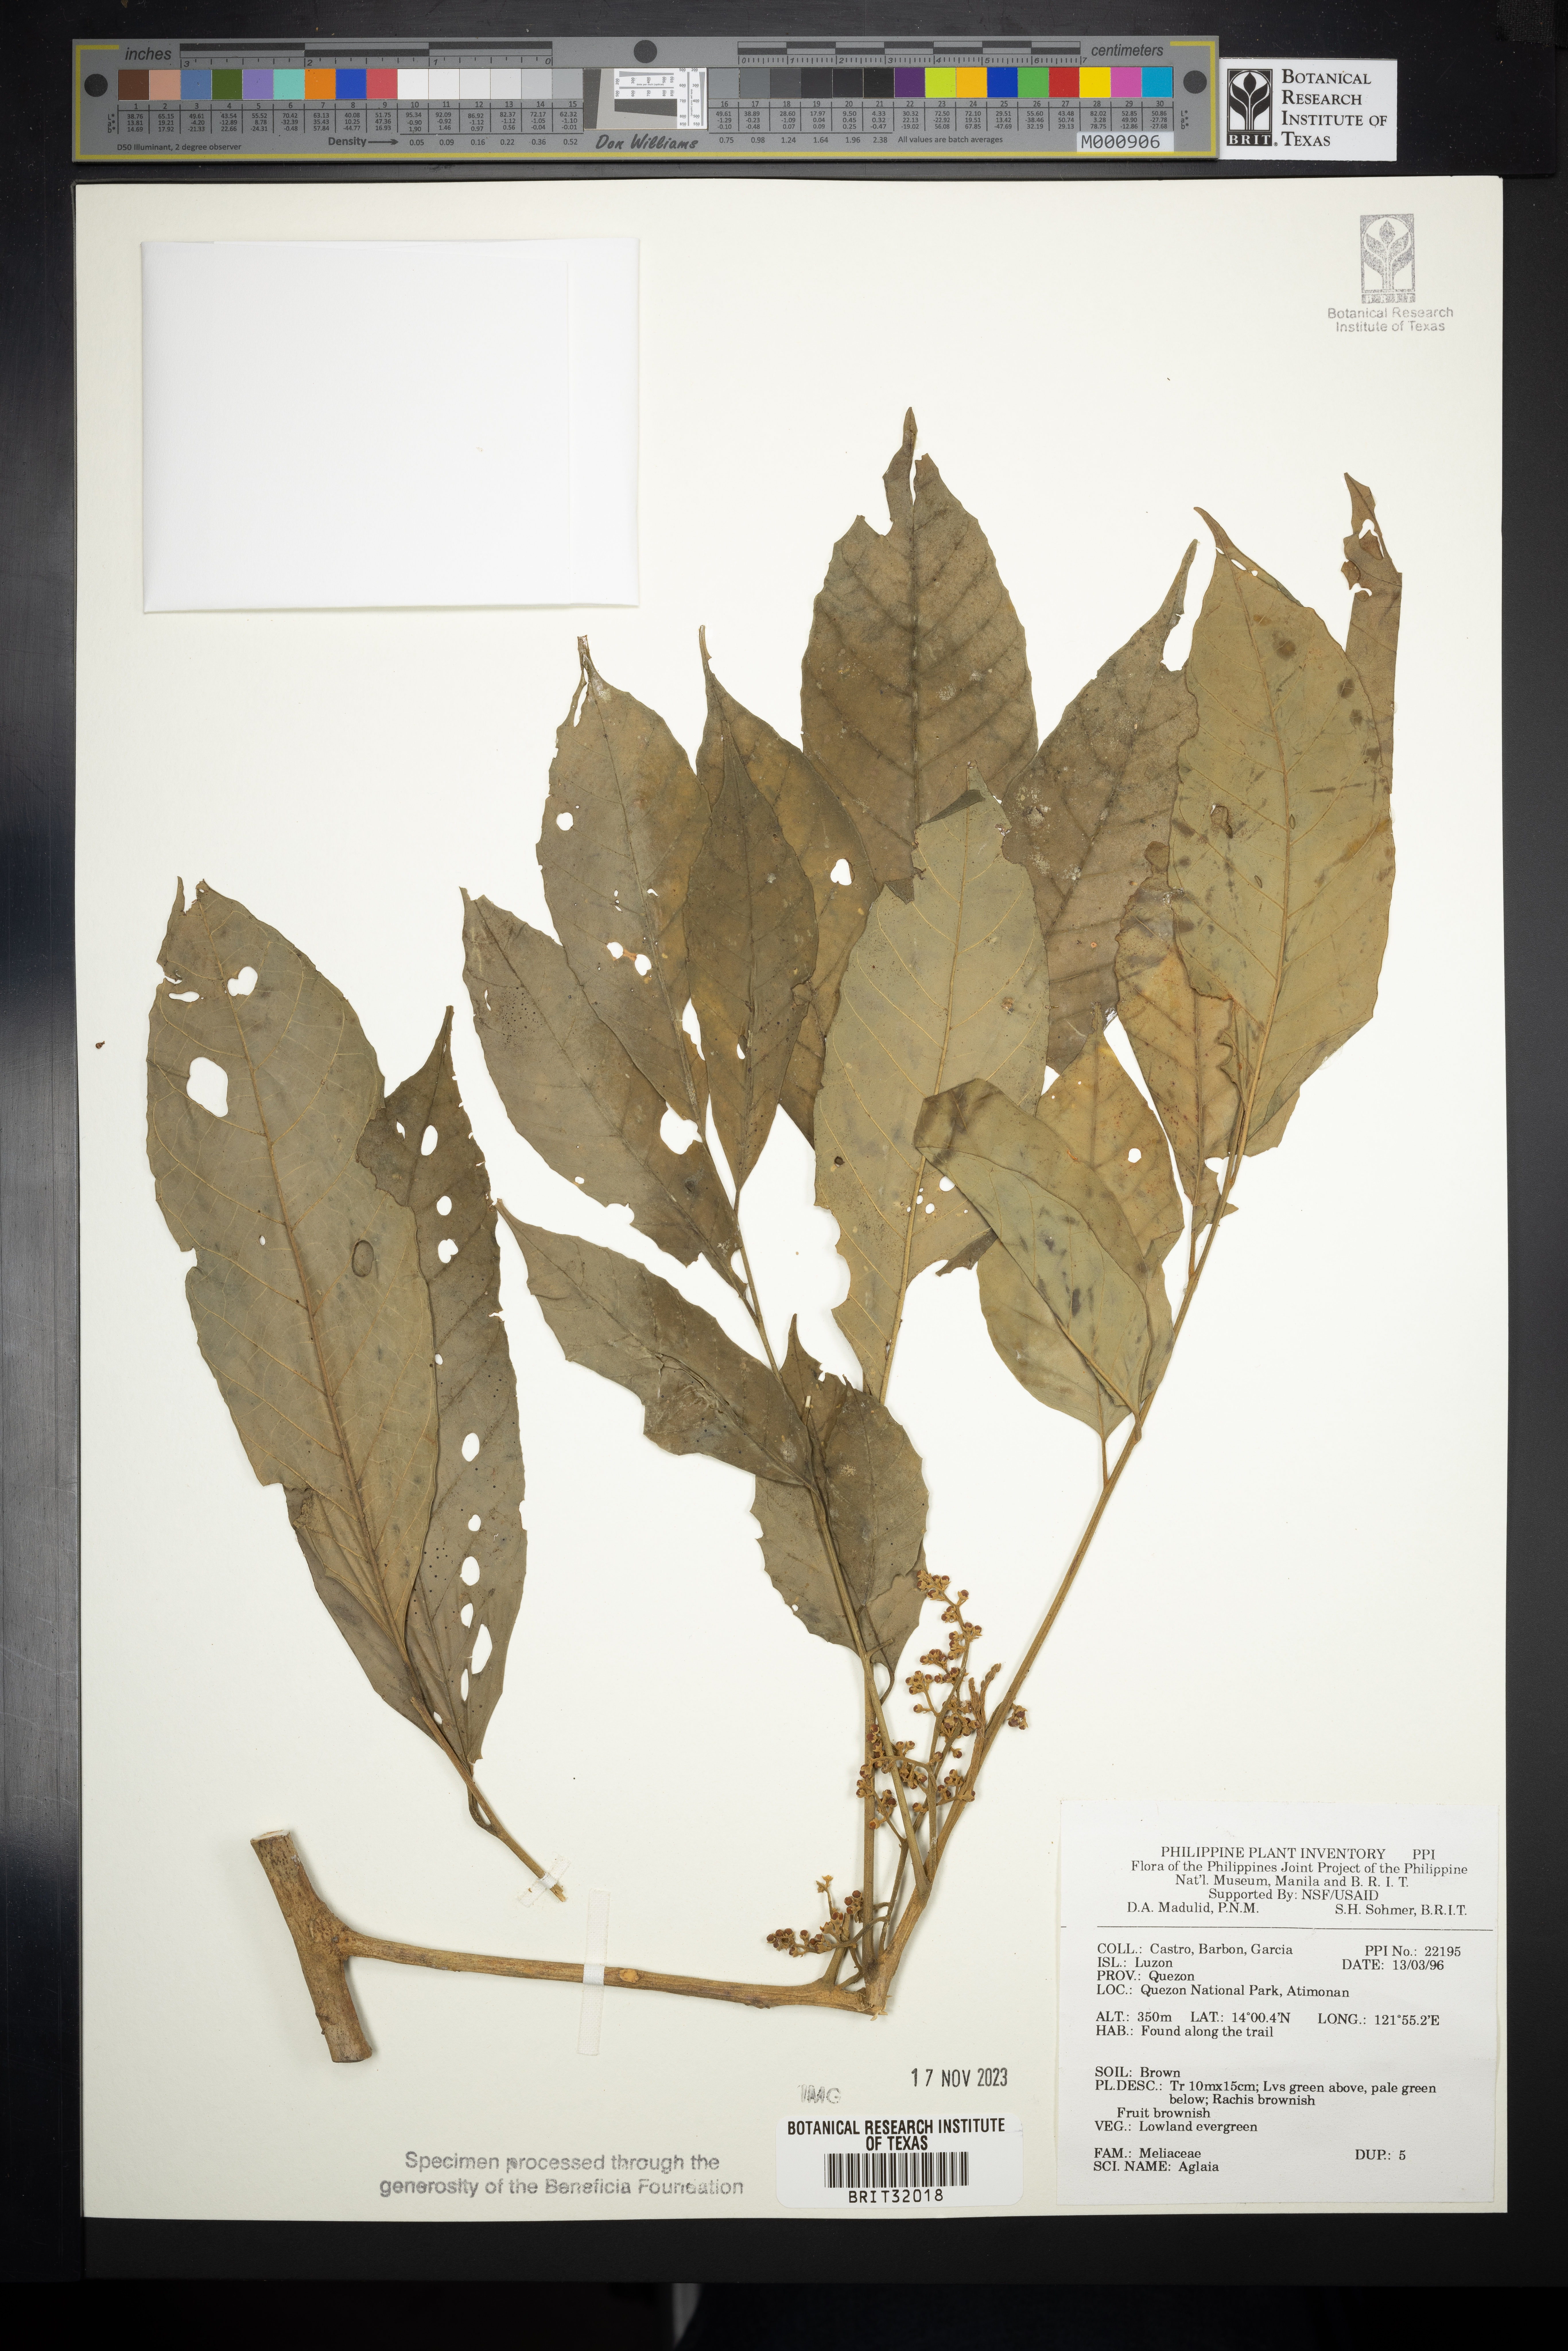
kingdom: Plantae
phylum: Tracheophyta
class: Magnoliopsida
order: Sapindales
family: Meliaceae
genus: Aglaia
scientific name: Aglaia
